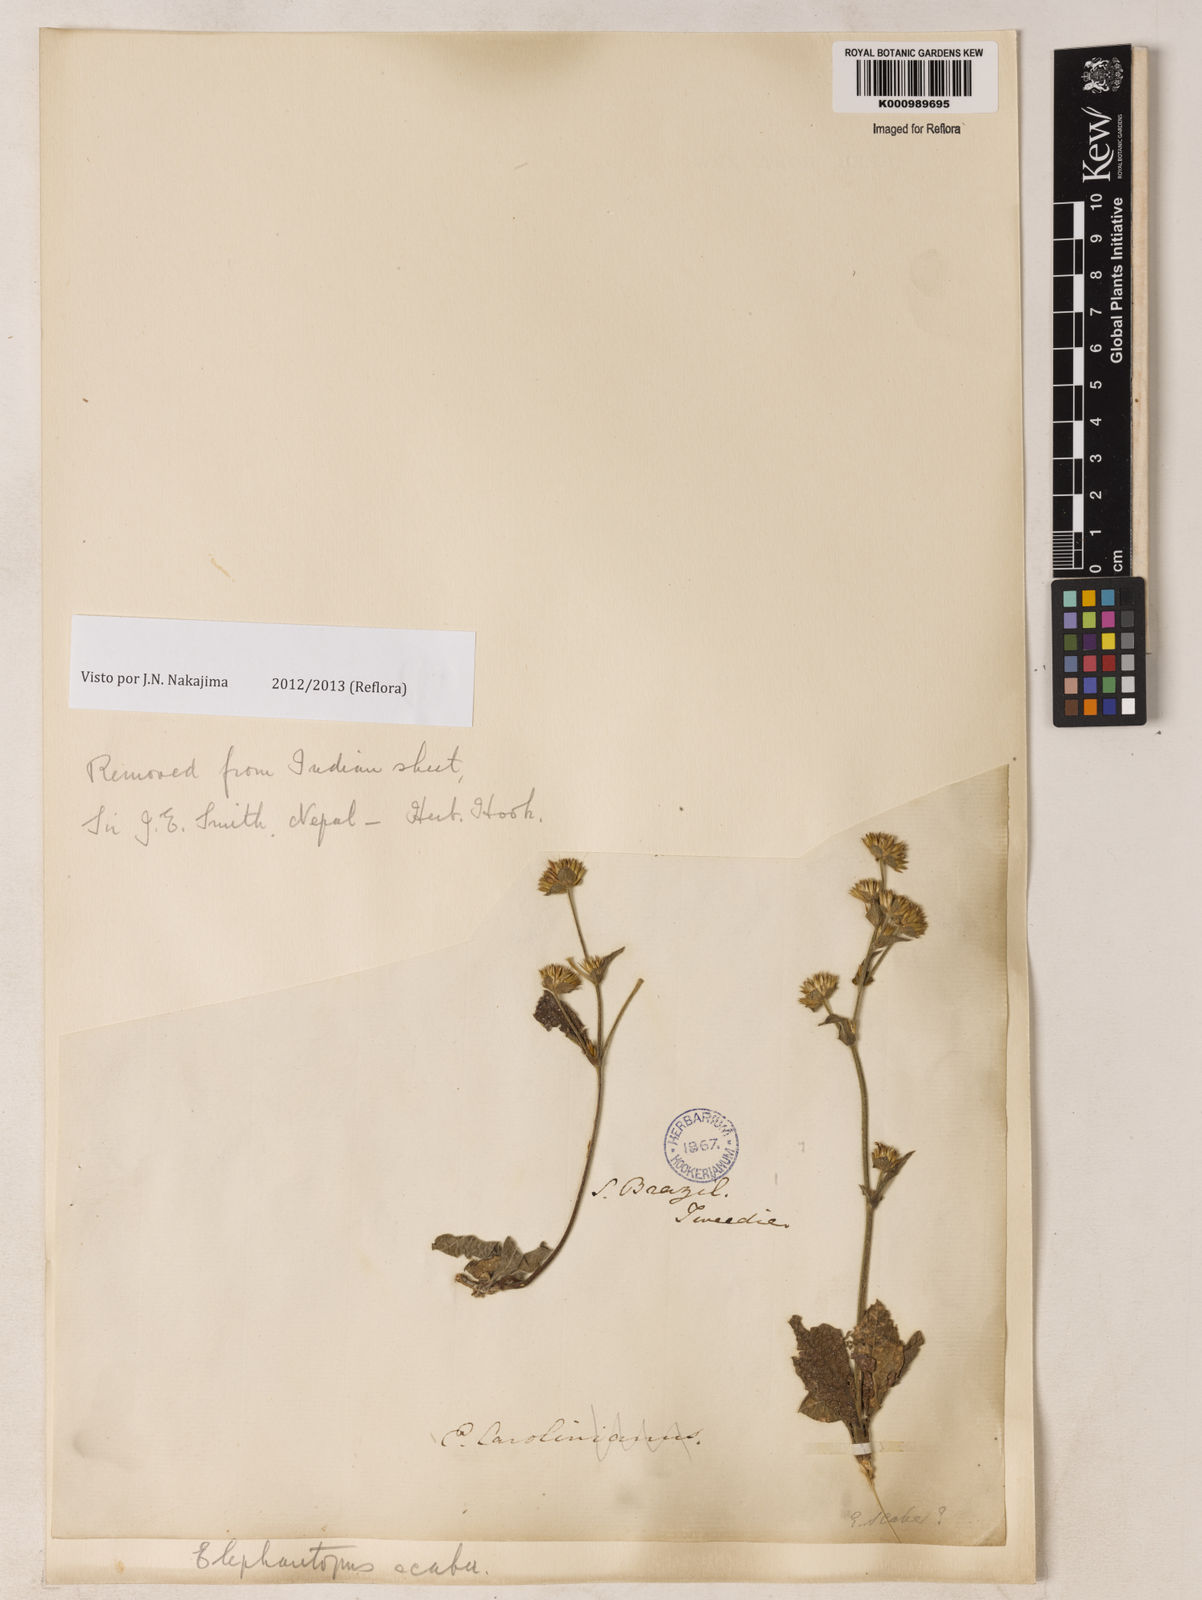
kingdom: Plantae
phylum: Tracheophyta
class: Magnoliopsida
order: Asterales
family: Asteraceae
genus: Elephantopus
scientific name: Elephantopus mollis
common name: Soft elephantsfoot
